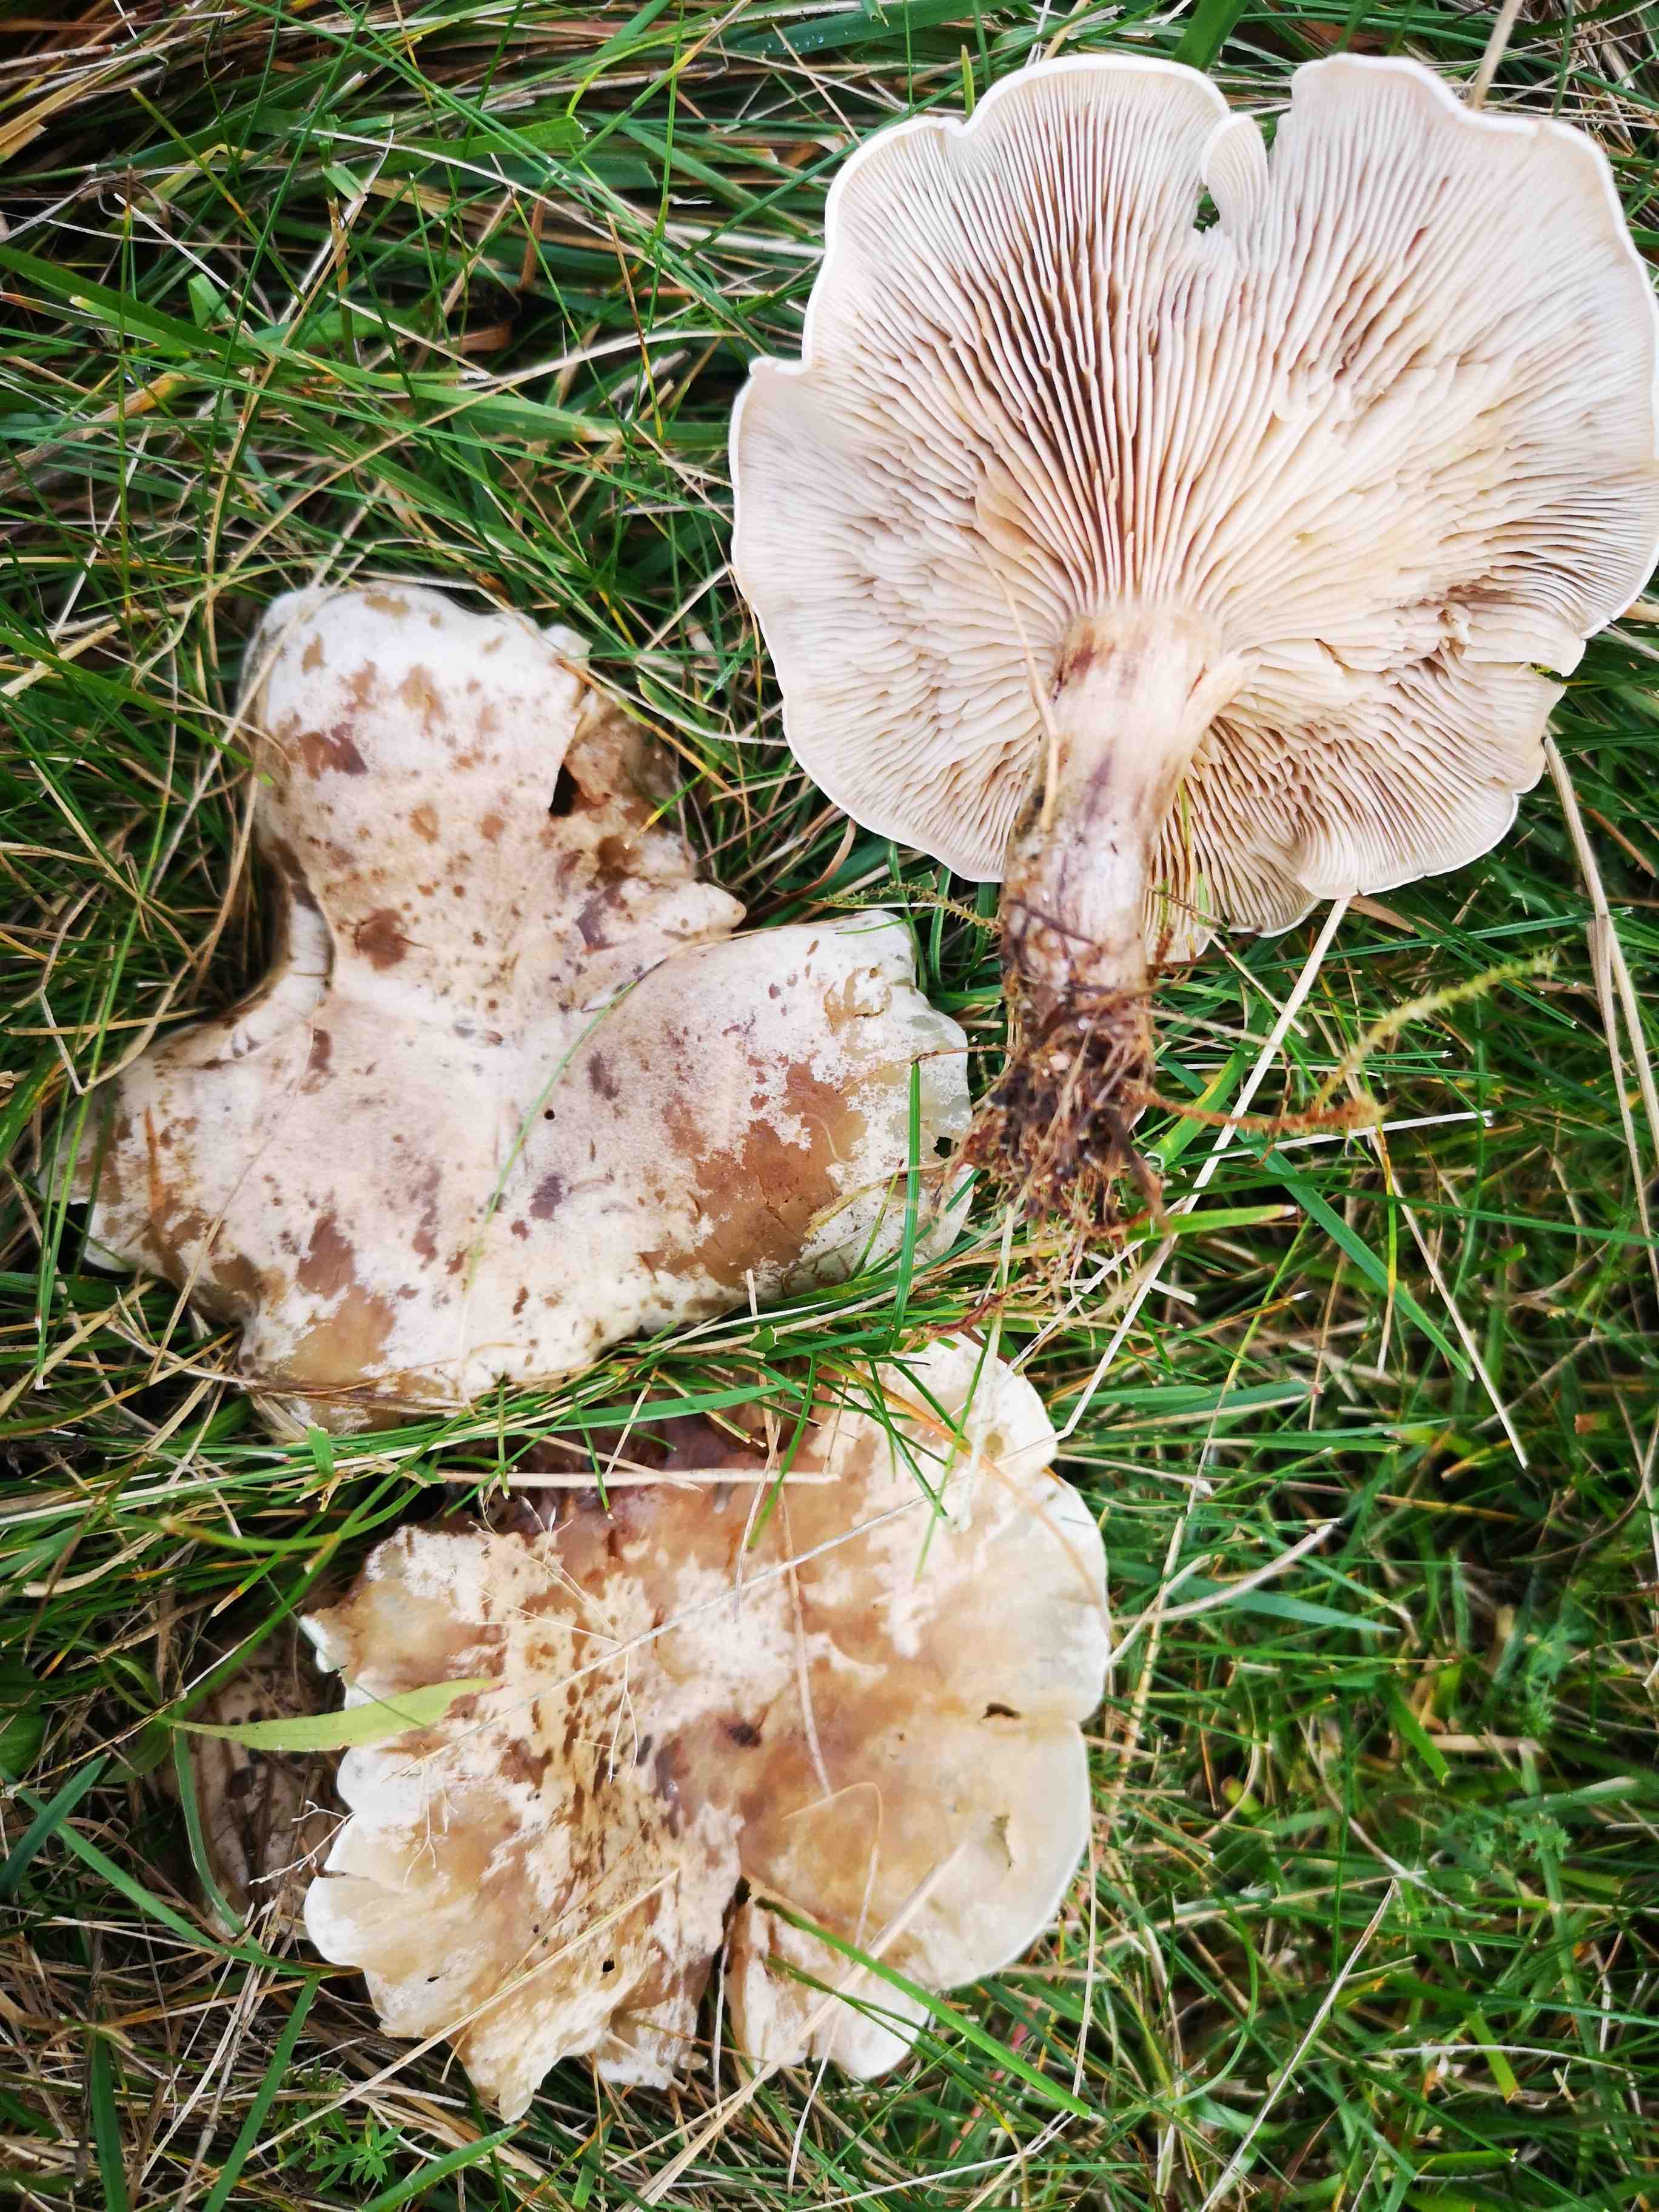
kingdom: Fungi
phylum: Basidiomycota
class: Agaricomycetes
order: Agaricales
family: Tricholomataceae
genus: Lepista
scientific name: Lepista panaeolus
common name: marmoreret hekseringshat
